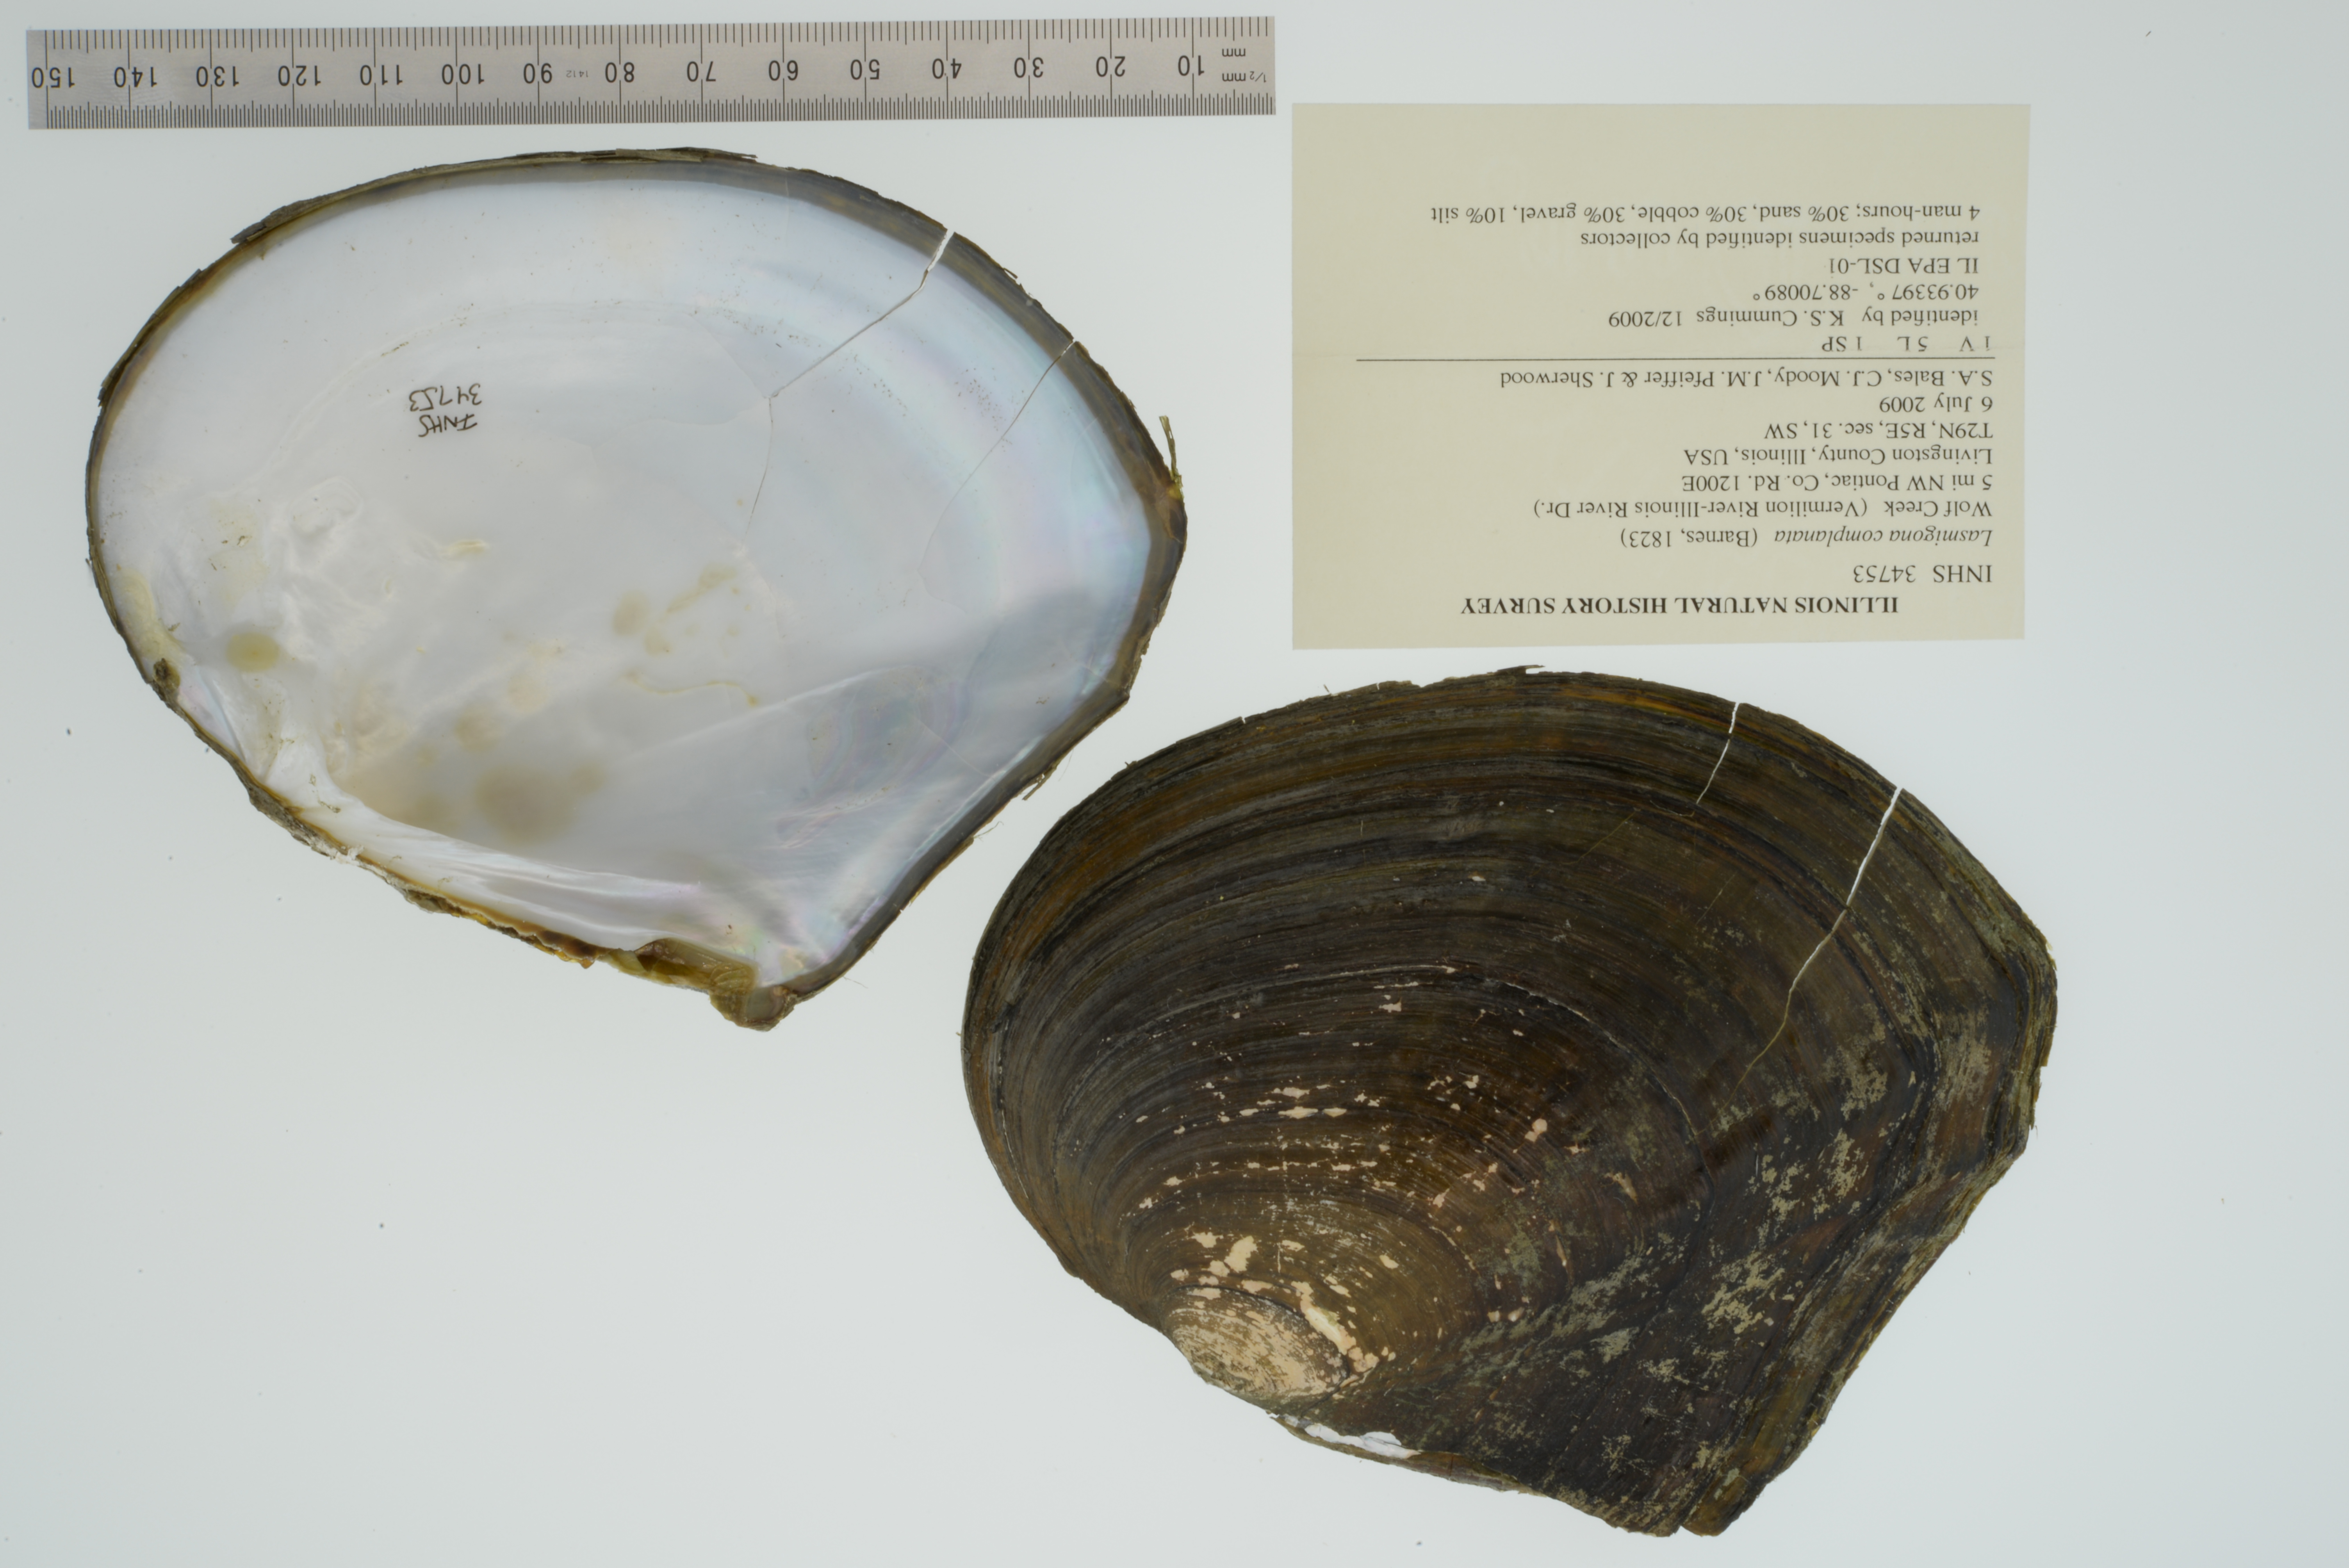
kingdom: Animalia
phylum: Mollusca
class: Bivalvia
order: Unionida
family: Unionidae
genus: Lasmigona
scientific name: Lasmigona complanata
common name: White heelsplitter
